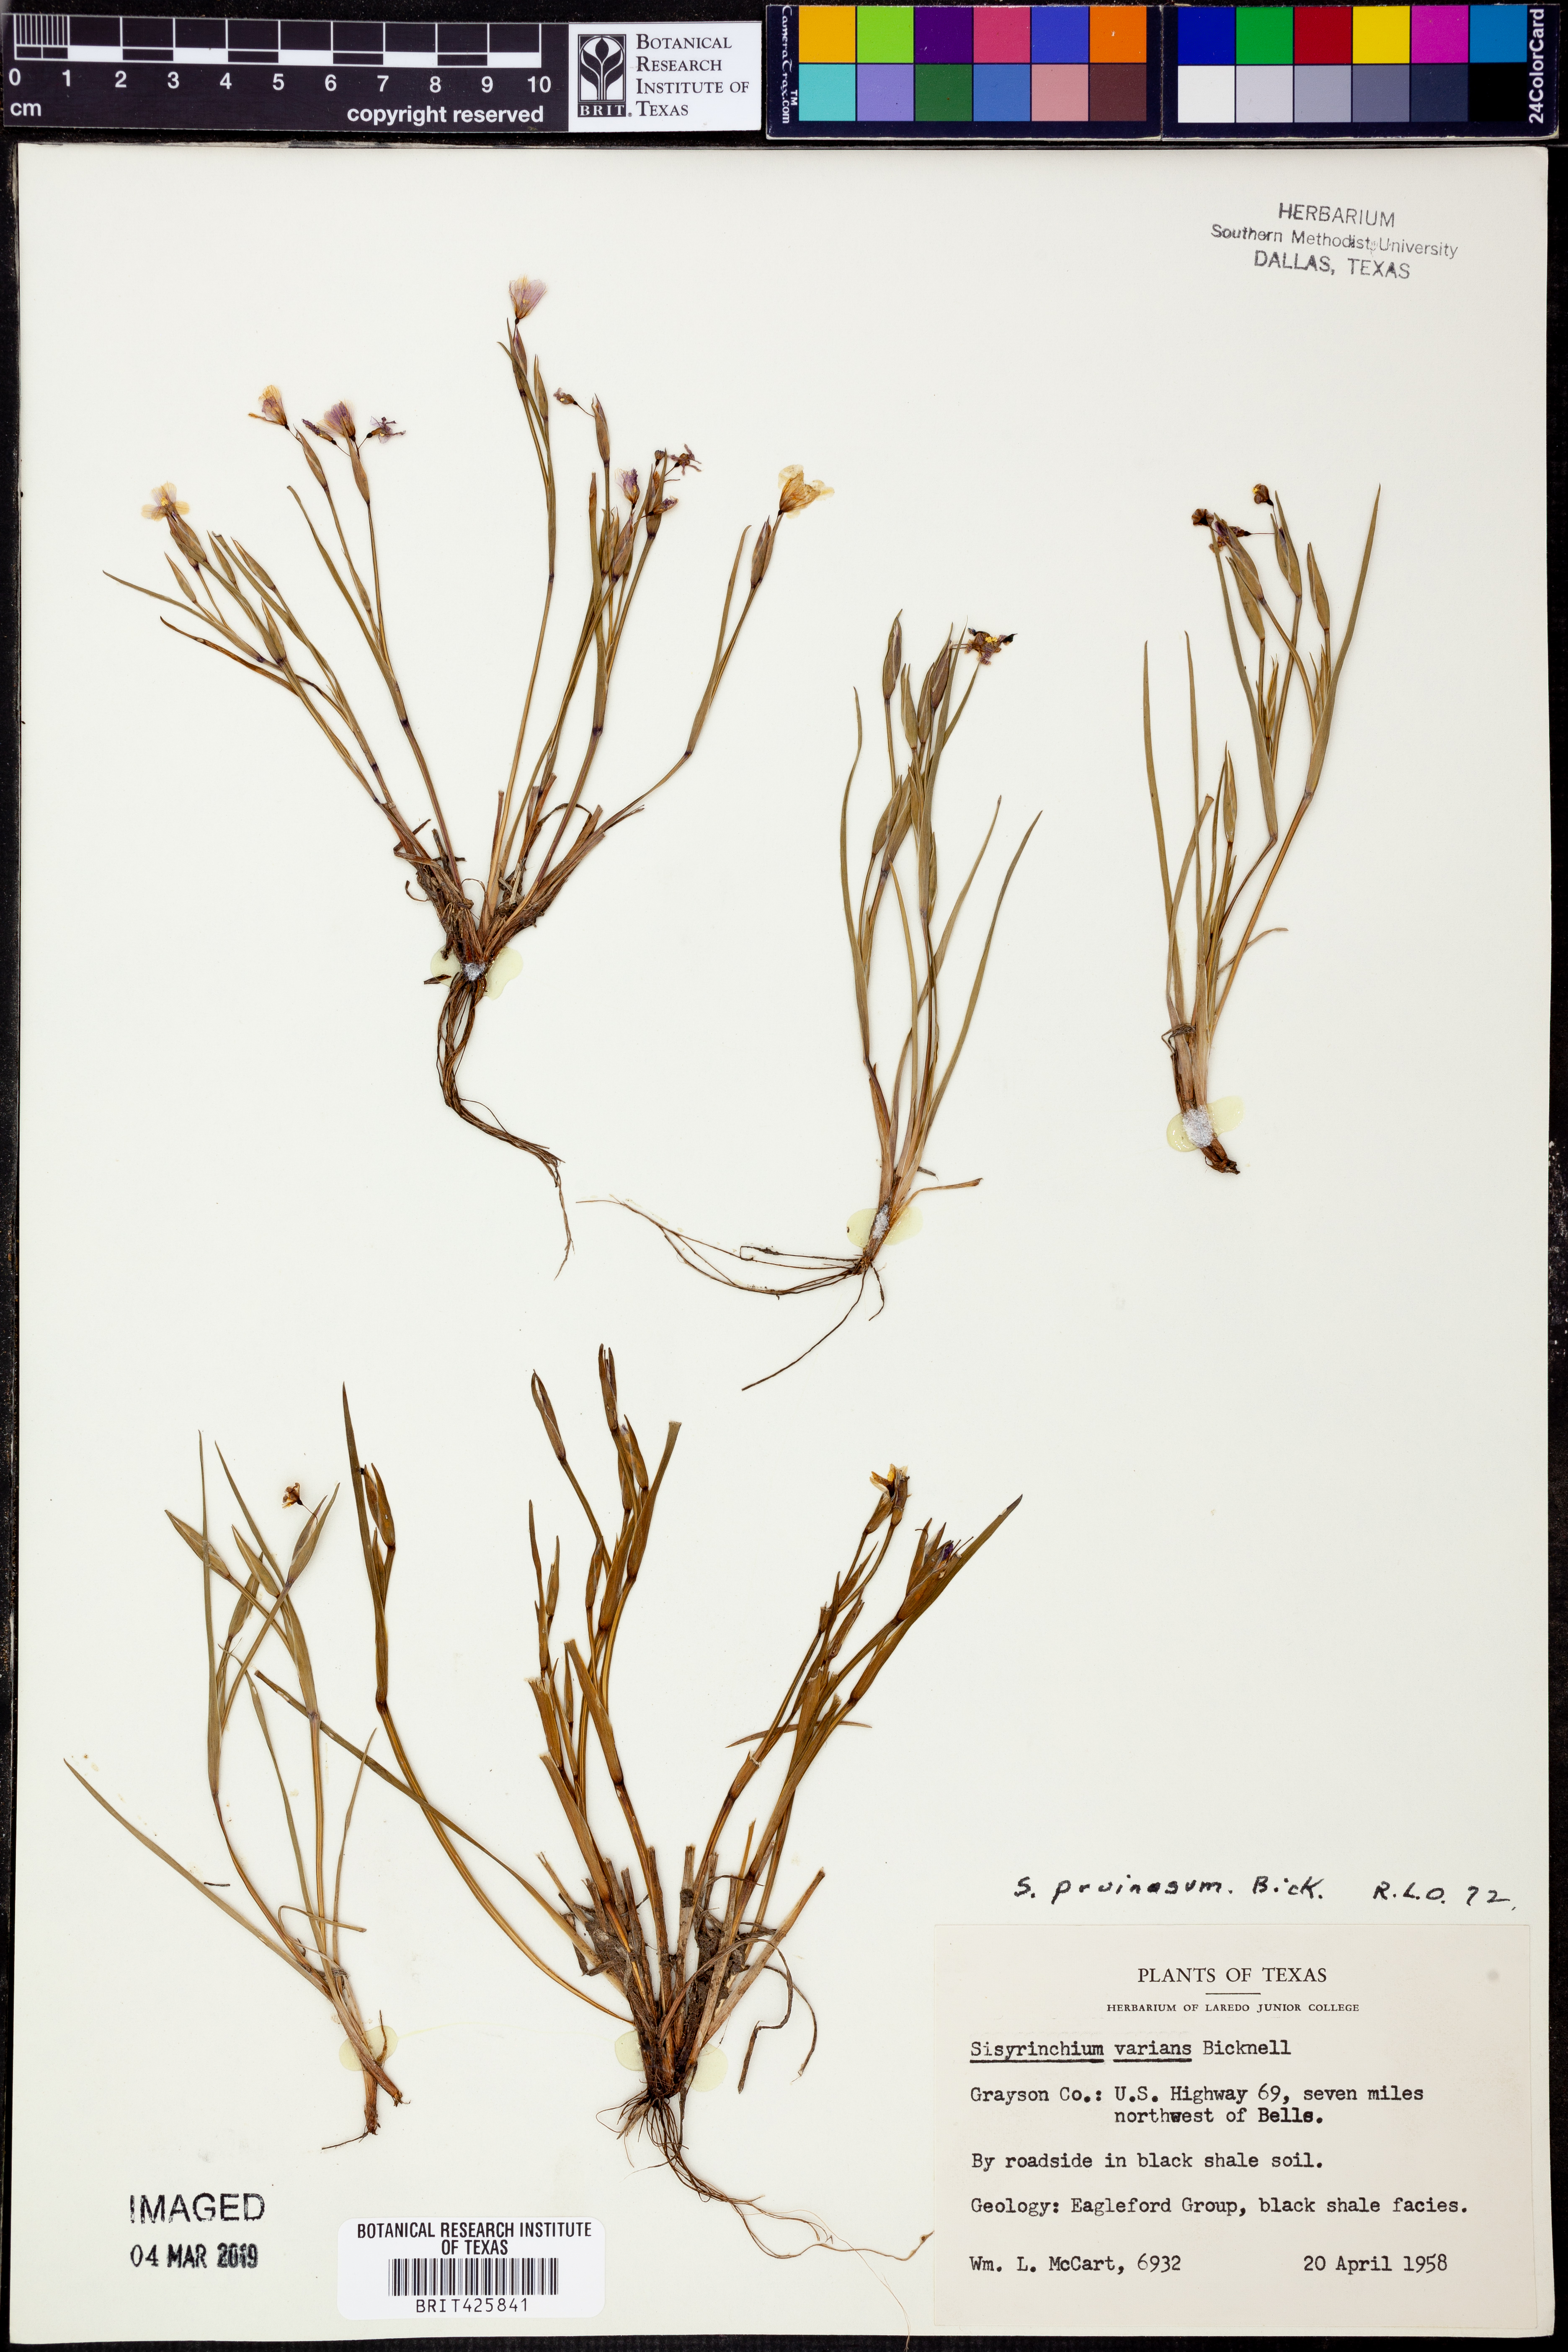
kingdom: Plantae
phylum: Tracheophyta
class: Liliopsida
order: Asparagales
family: Iridaceae
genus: Sisyrinchium
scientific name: Sisyrinchium pruinosum
